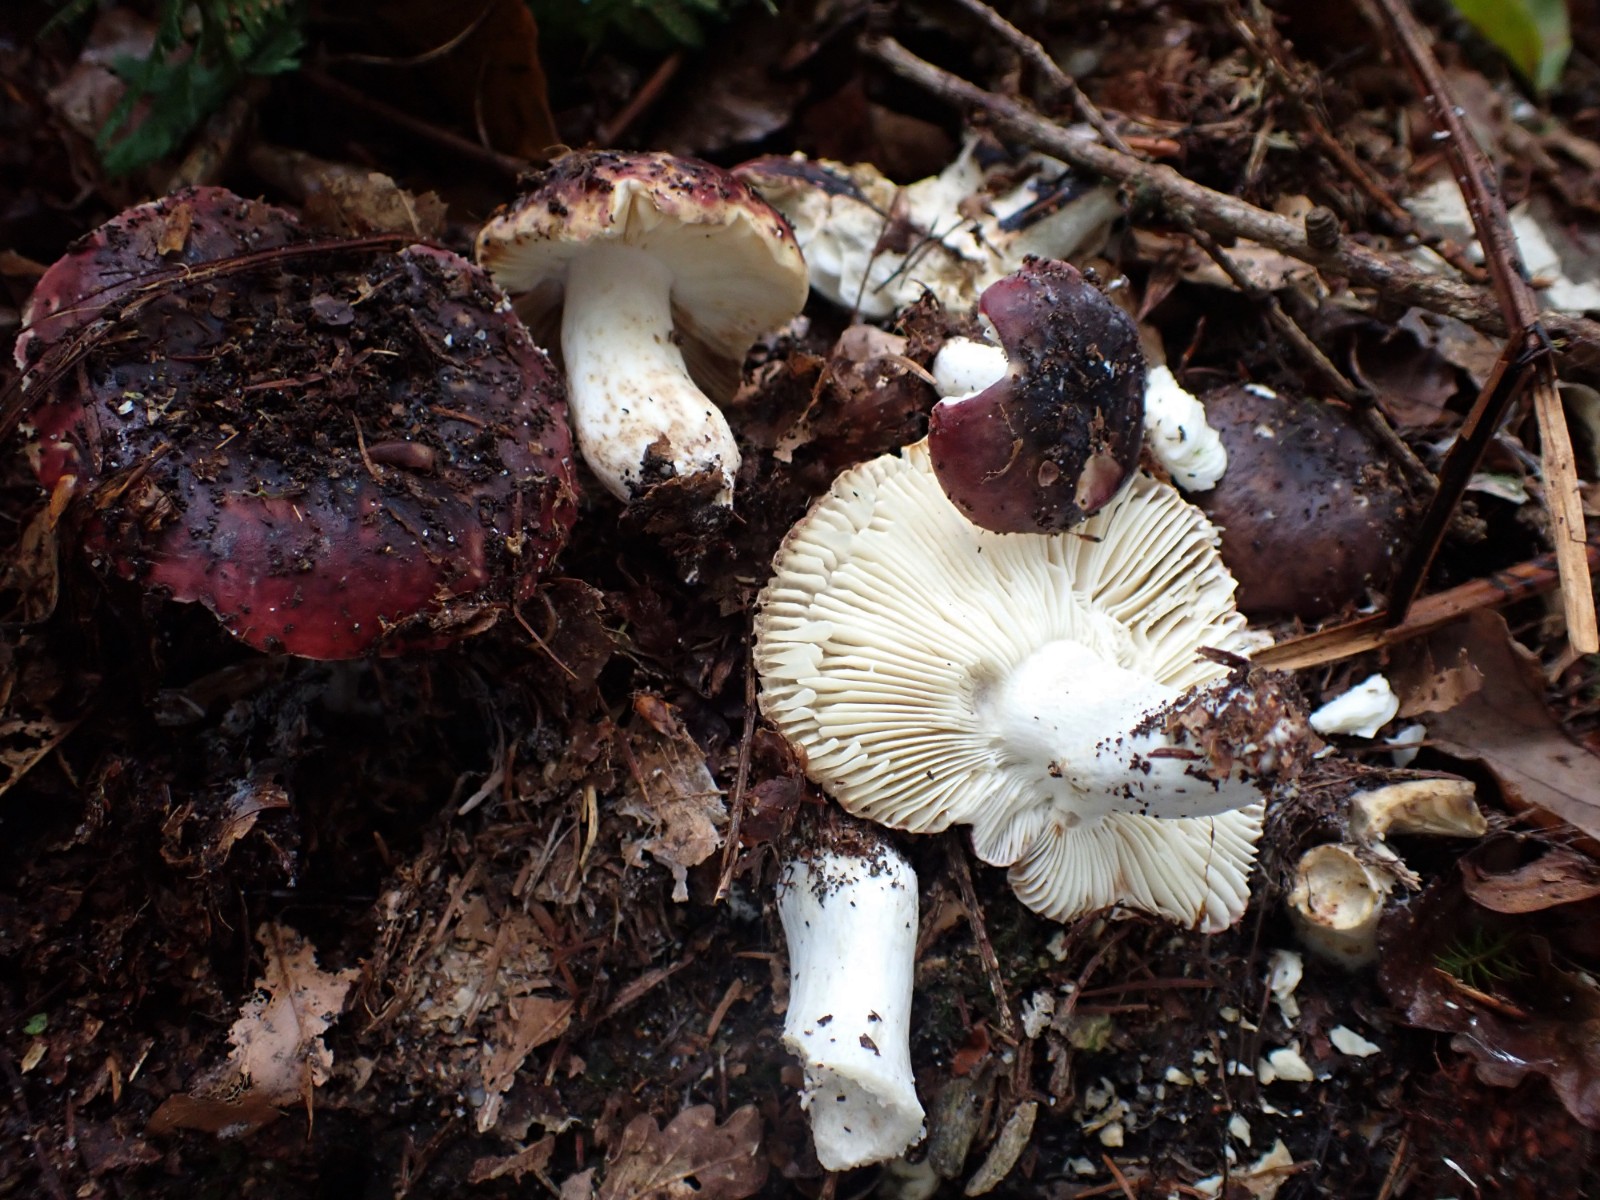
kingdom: Fungi
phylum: Basidiomycota
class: Agaricomycetes
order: Russulales
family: Russulaceae
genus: Russula
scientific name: Russula atropurpurea
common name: purpurbroget skørhat
